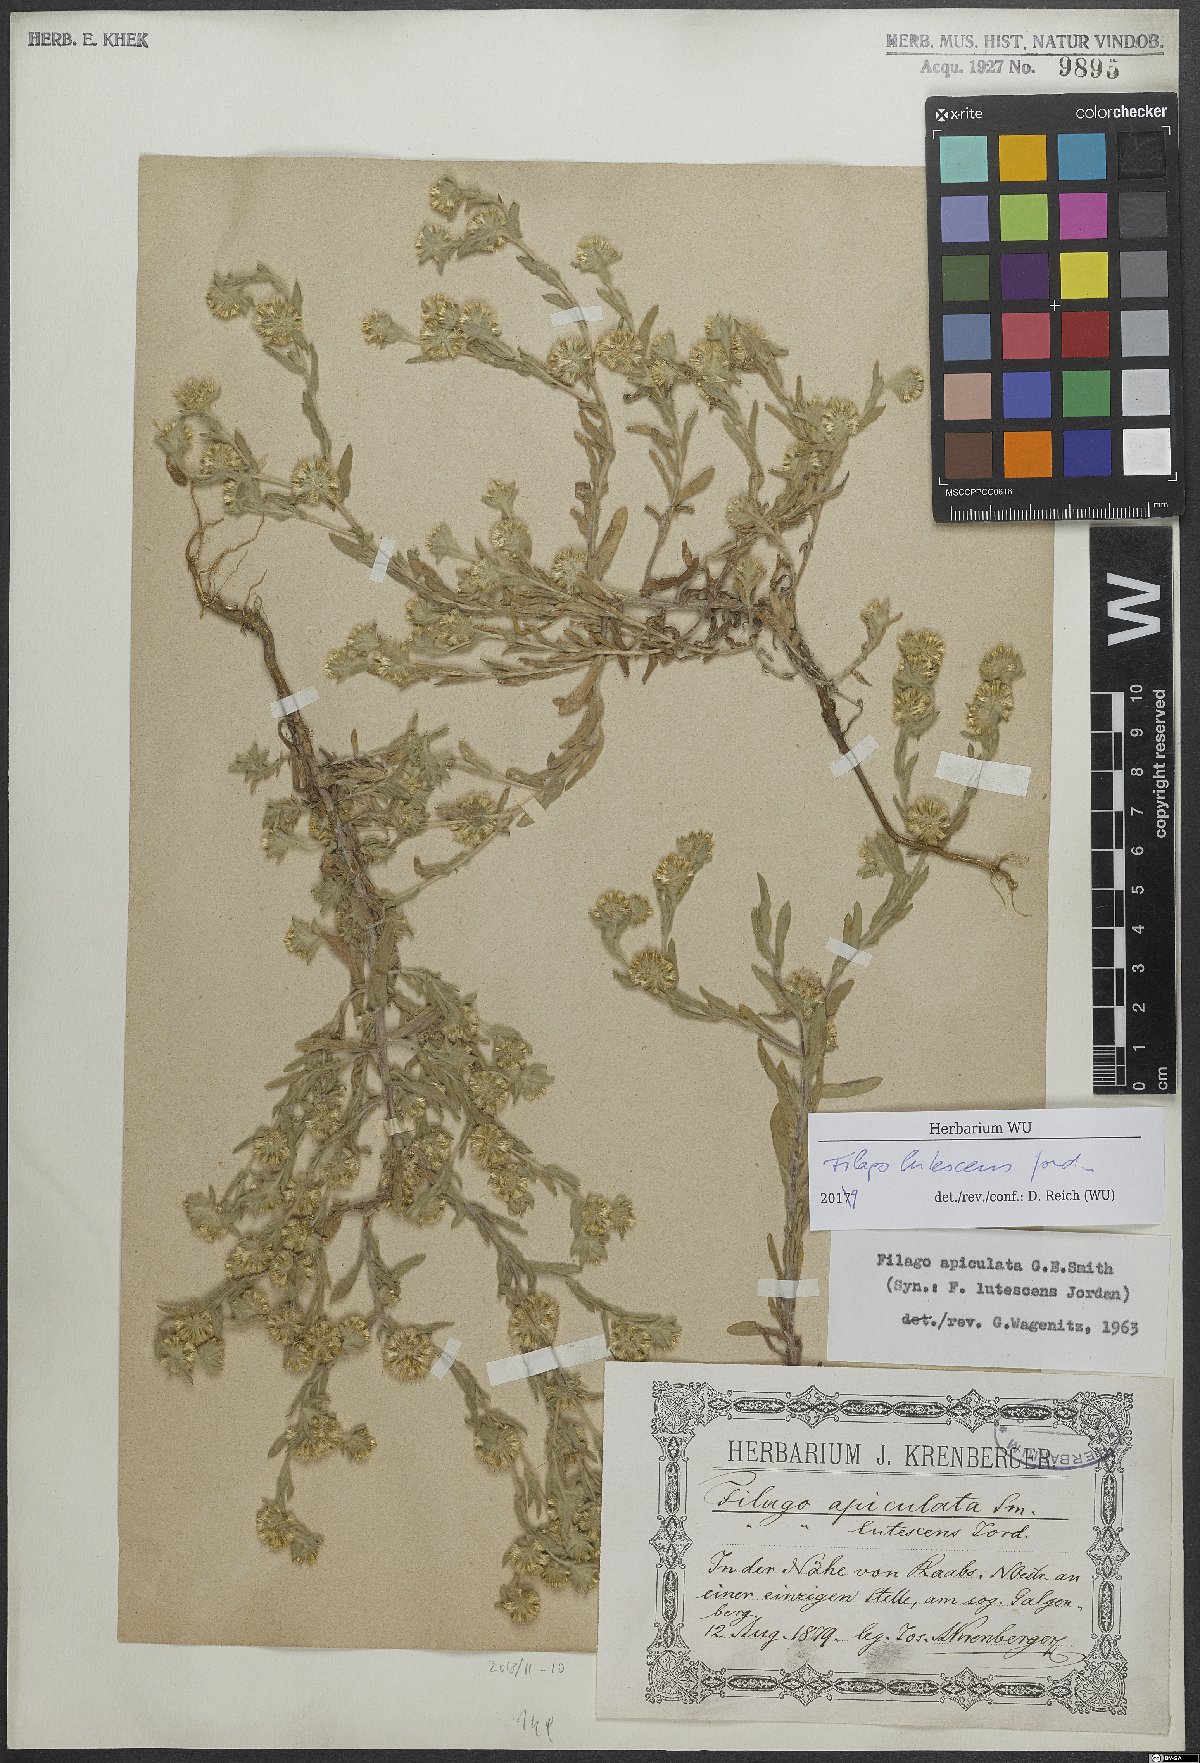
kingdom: Plantae
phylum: Tracheophyta
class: Magnoliopsida
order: Asterales
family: Asteraceae
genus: Filago
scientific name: Filago lutescens
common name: Red-tipped cudweed
